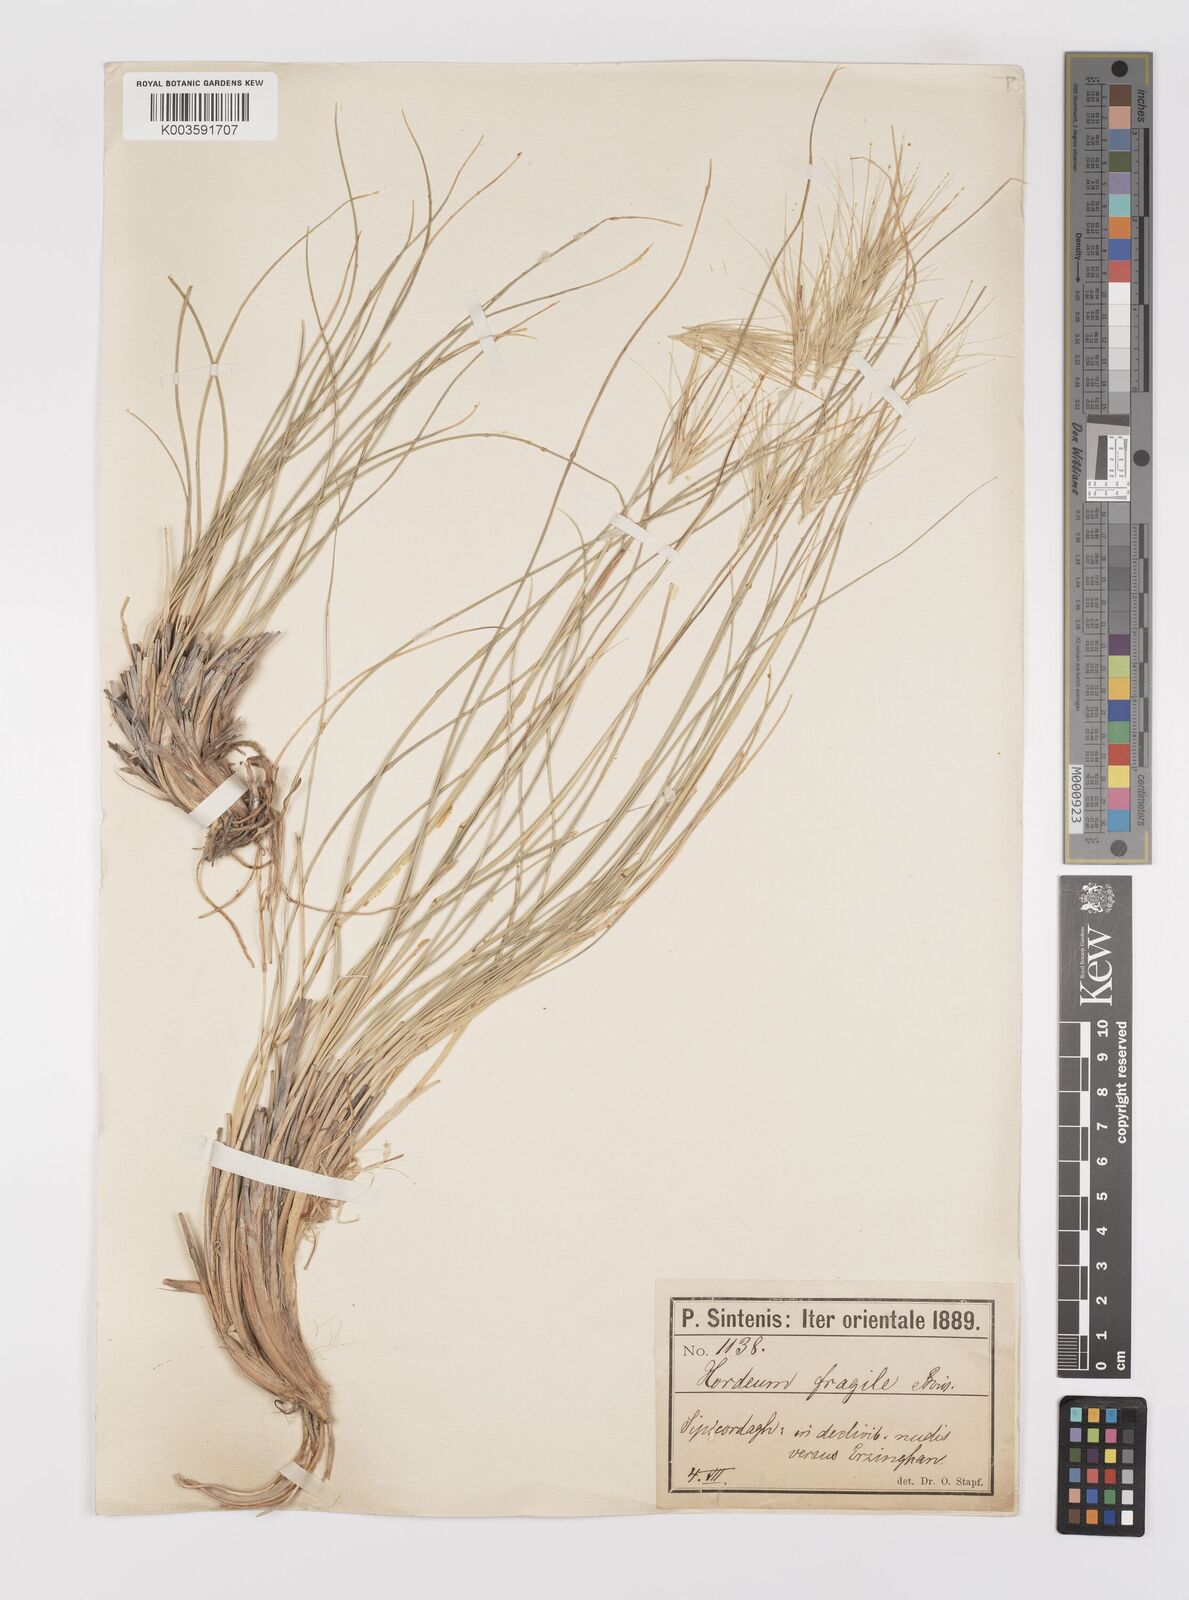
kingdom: Plantae
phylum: Tracheophyta
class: Liliopsida
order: Poales
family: Poaceae
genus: Psathyrostachys
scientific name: Psathyrostachys fragilis
